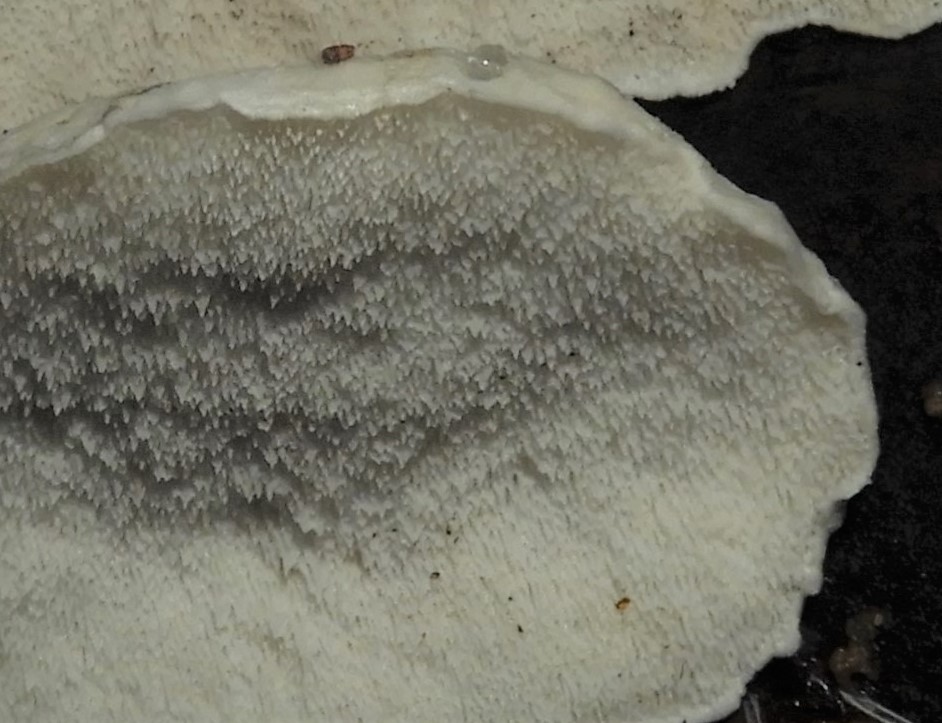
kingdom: Fungi
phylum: Basidiomycota
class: Agaricomycetes
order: Polyporales
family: Polyporaceae
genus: Cyanosporus
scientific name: Cyanosporus caesius
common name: blålig kødporesvamp
